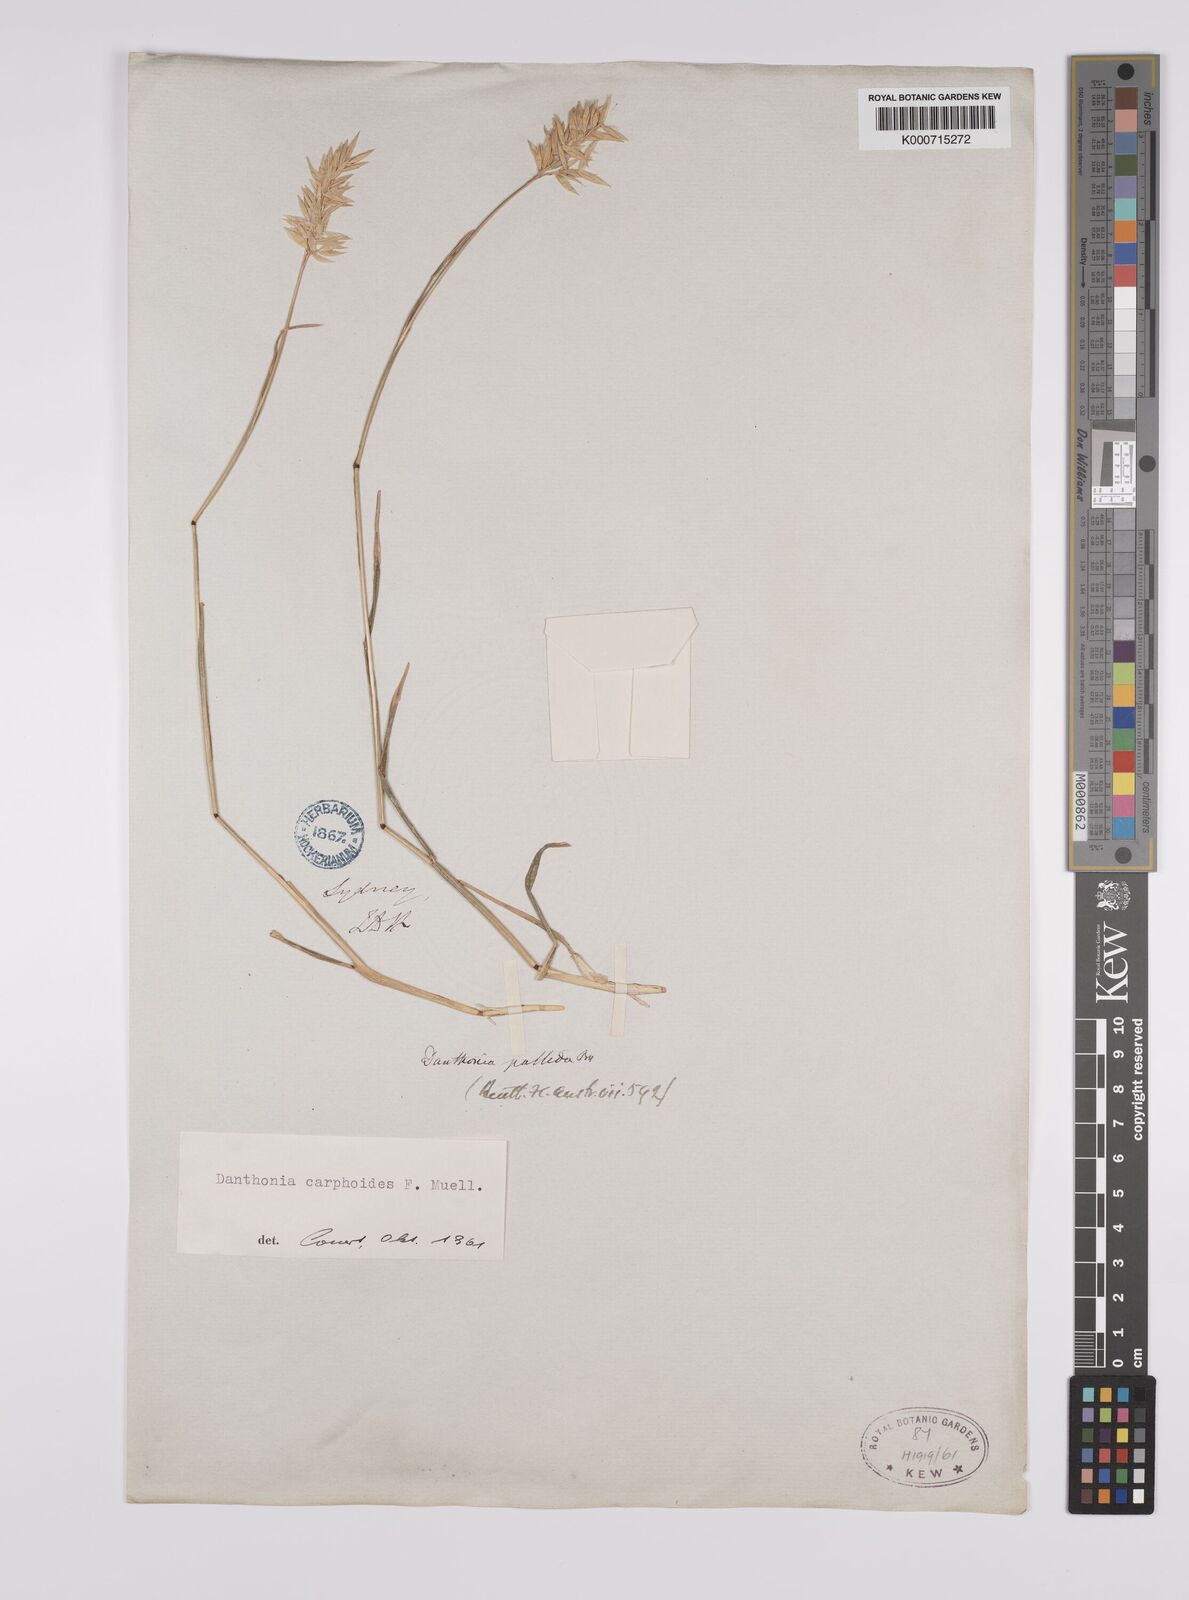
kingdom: Plantae
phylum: Tracheophyta
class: Liliopsida
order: Poales
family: Poaceae
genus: Rytidosperma
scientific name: Rytidosperma carphoides
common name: Short wallaby grass
